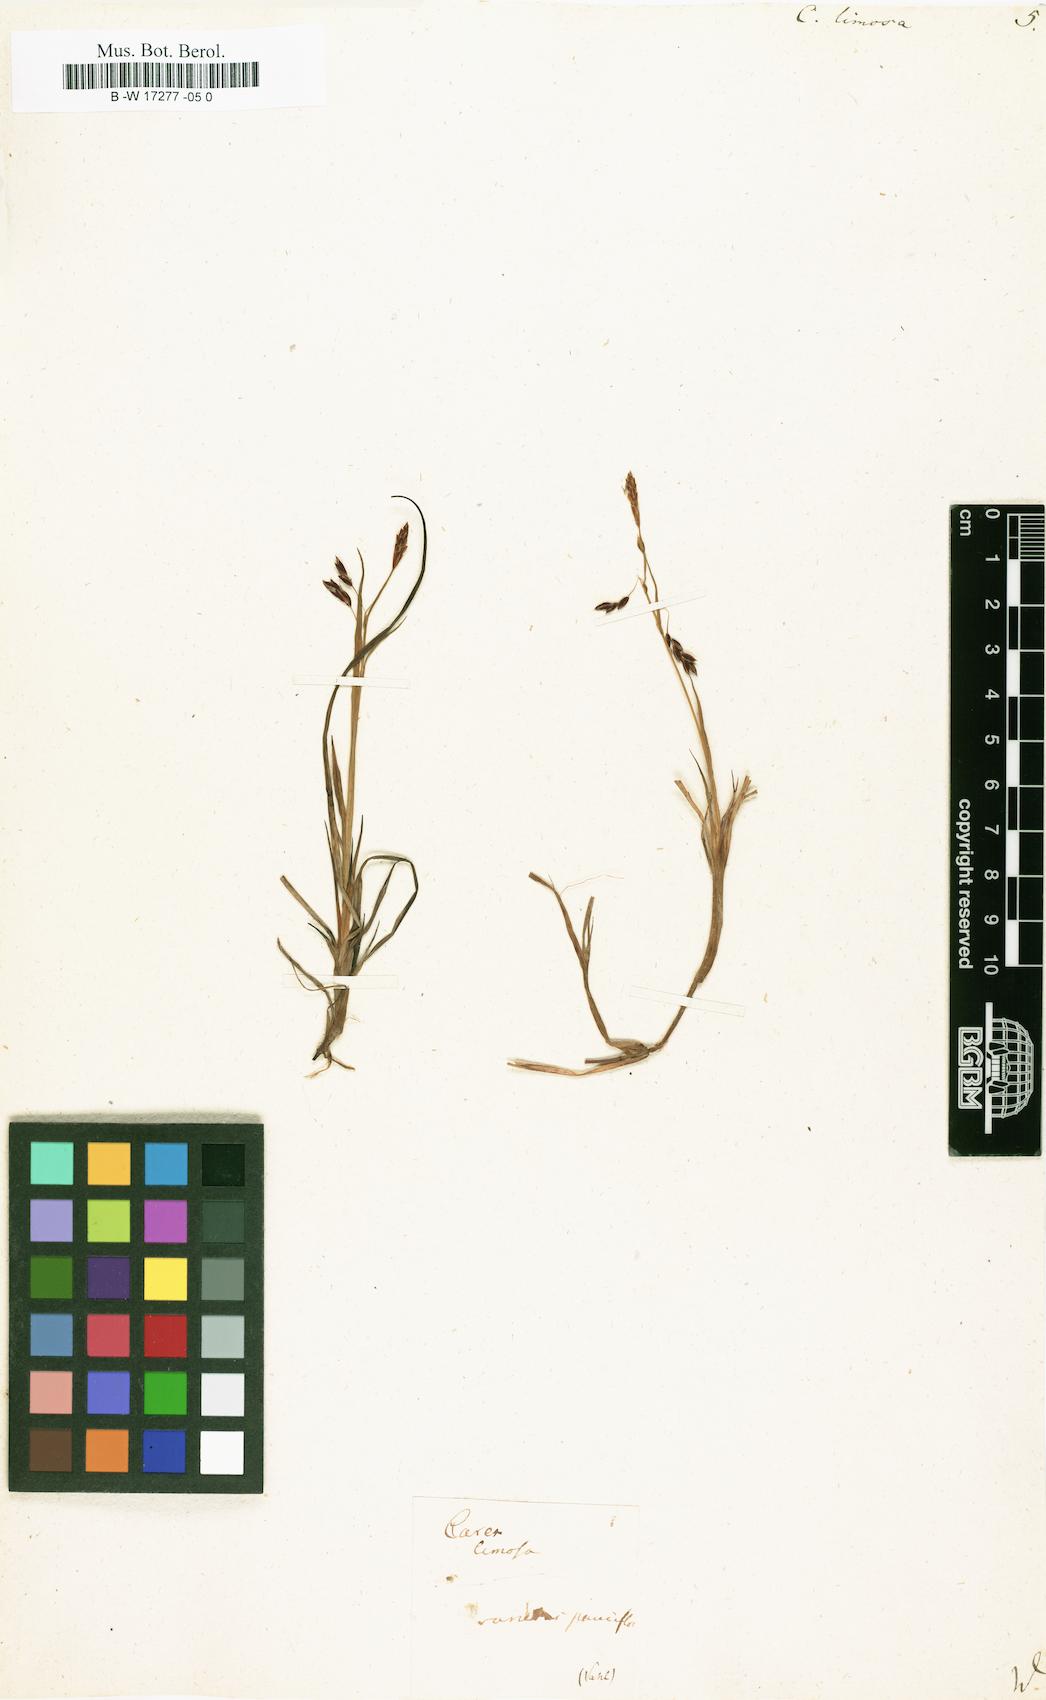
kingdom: Plantae
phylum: Tracheophyta
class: Liliopsida
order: Poales
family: Cyperaceae
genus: Carex
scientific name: Carex limosa
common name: Bog sedge
